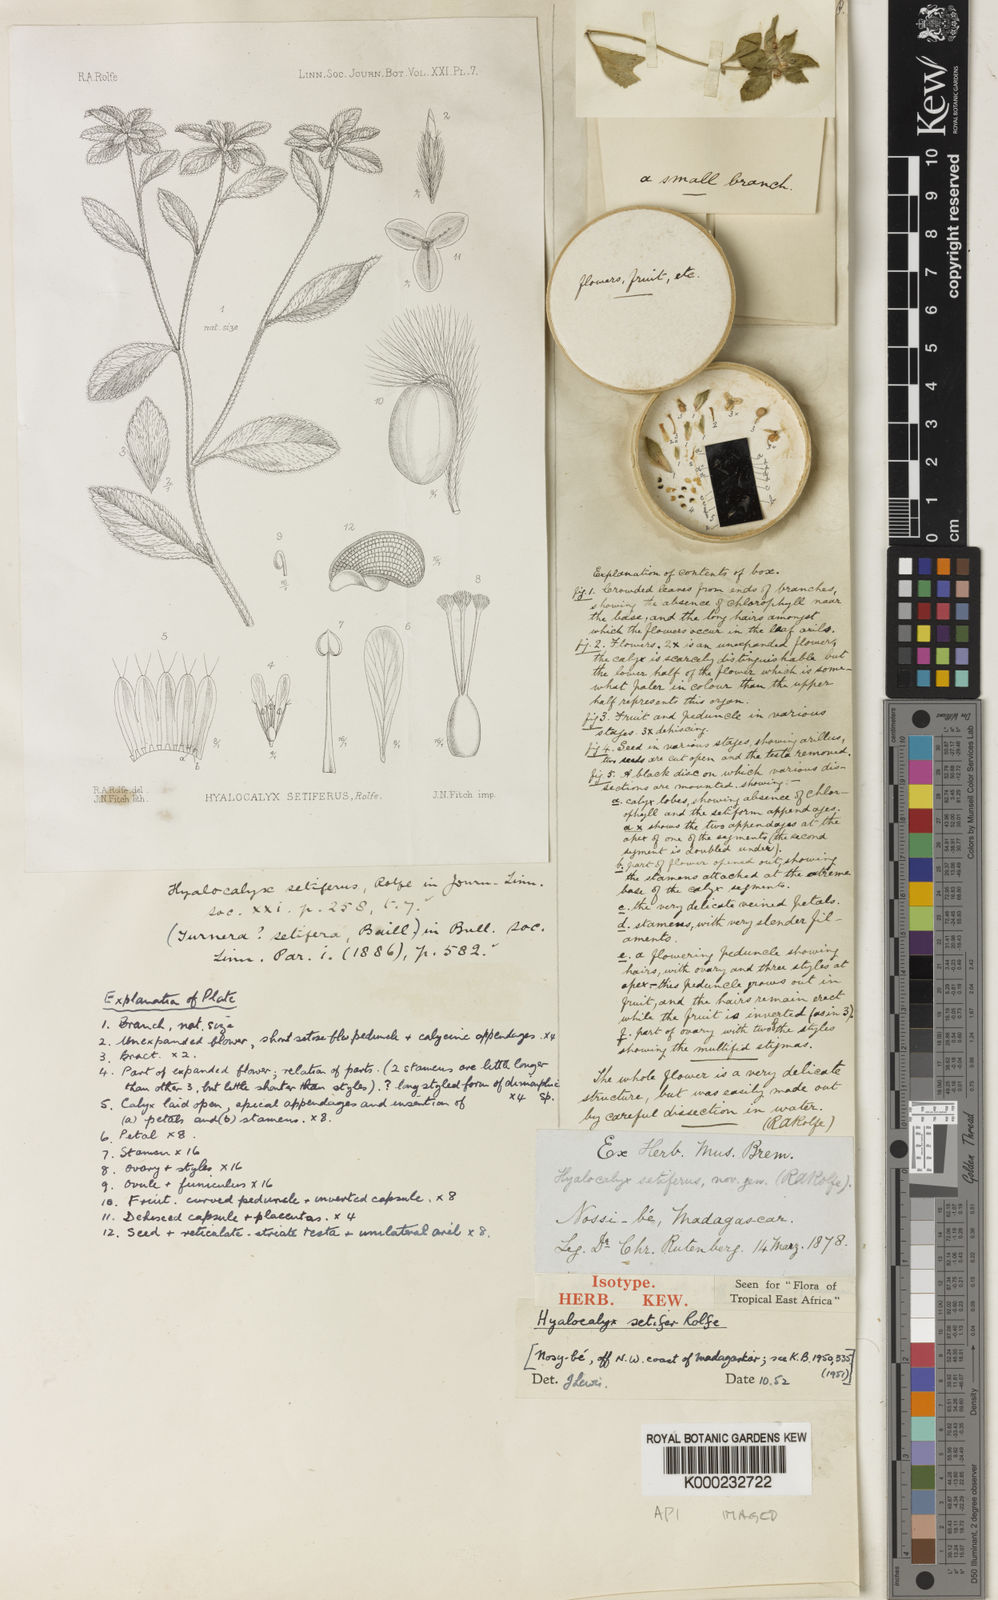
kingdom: Plantae
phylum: Tracheophyta
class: Magnoliopsida
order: Malpighiales
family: Turneraceae
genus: Hyalocalyx
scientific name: Hyalocalyx setiferus
